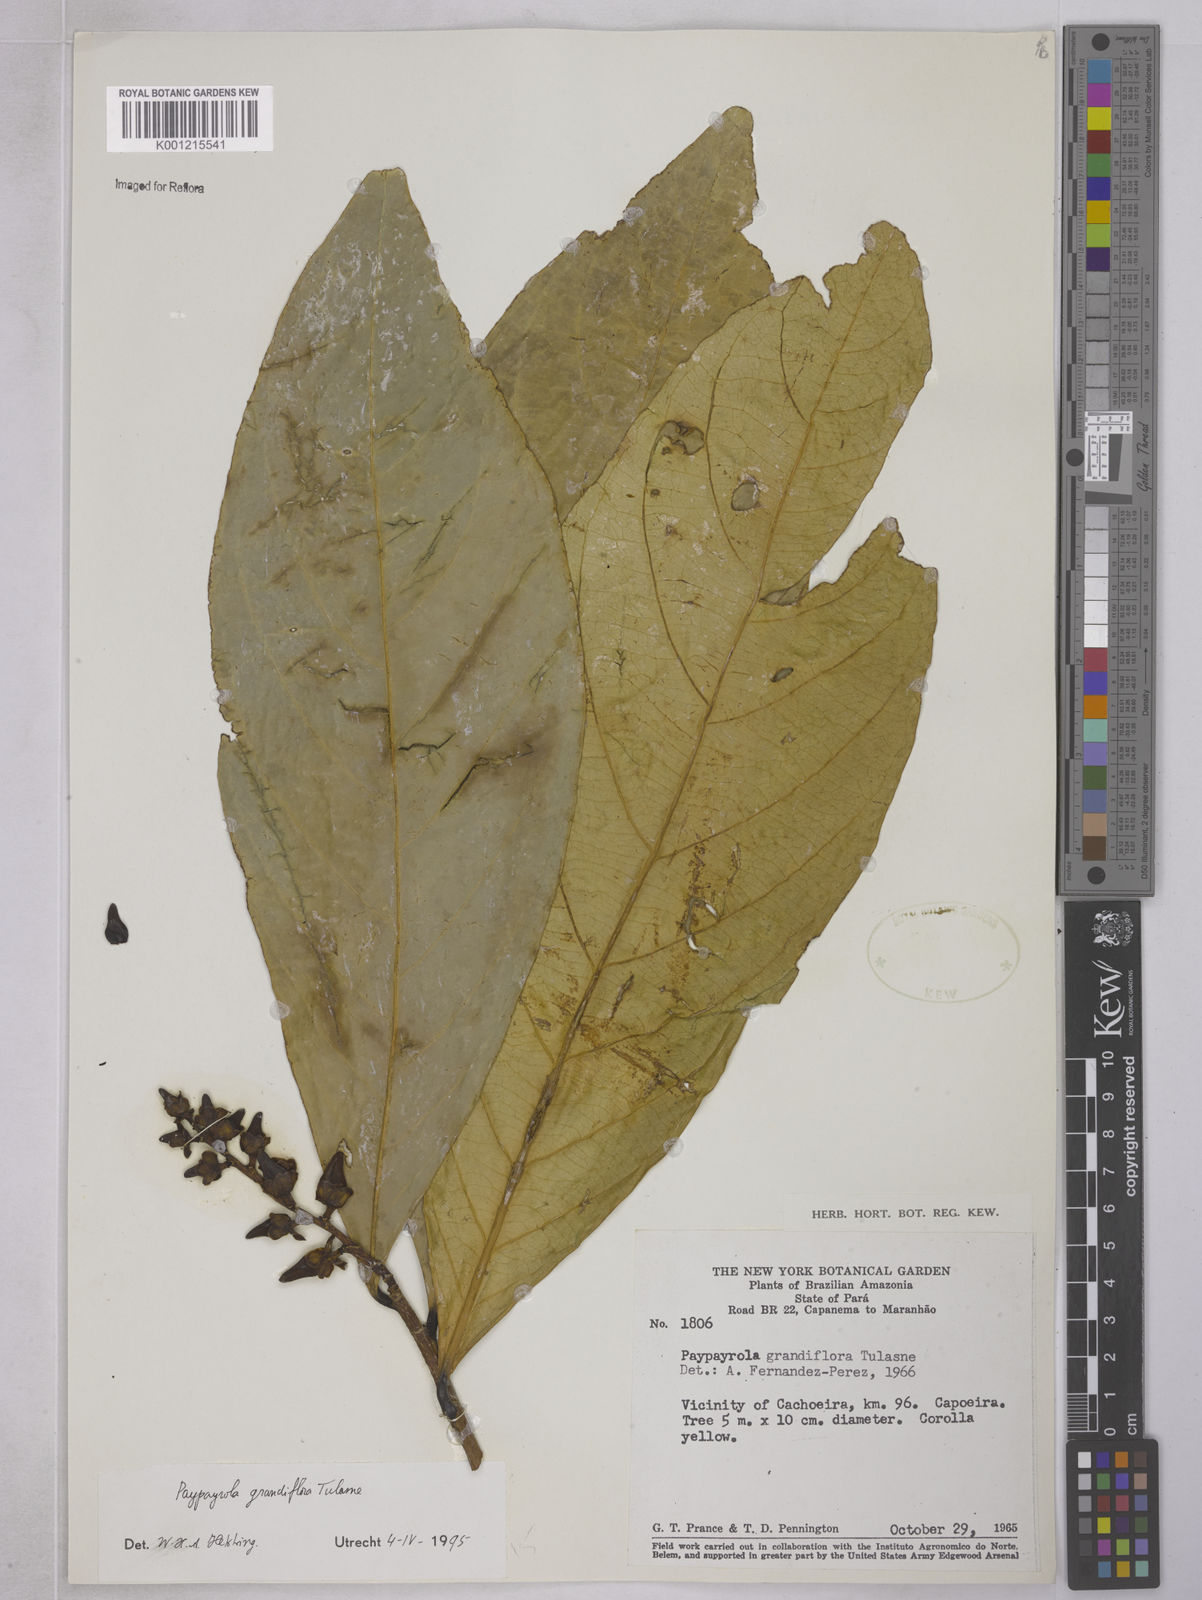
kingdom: Plantae
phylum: Tracheophyta
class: Magnoliopsida
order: Malpighiales
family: Violaceae
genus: Paypayrola
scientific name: Paypayrola grandiflora
